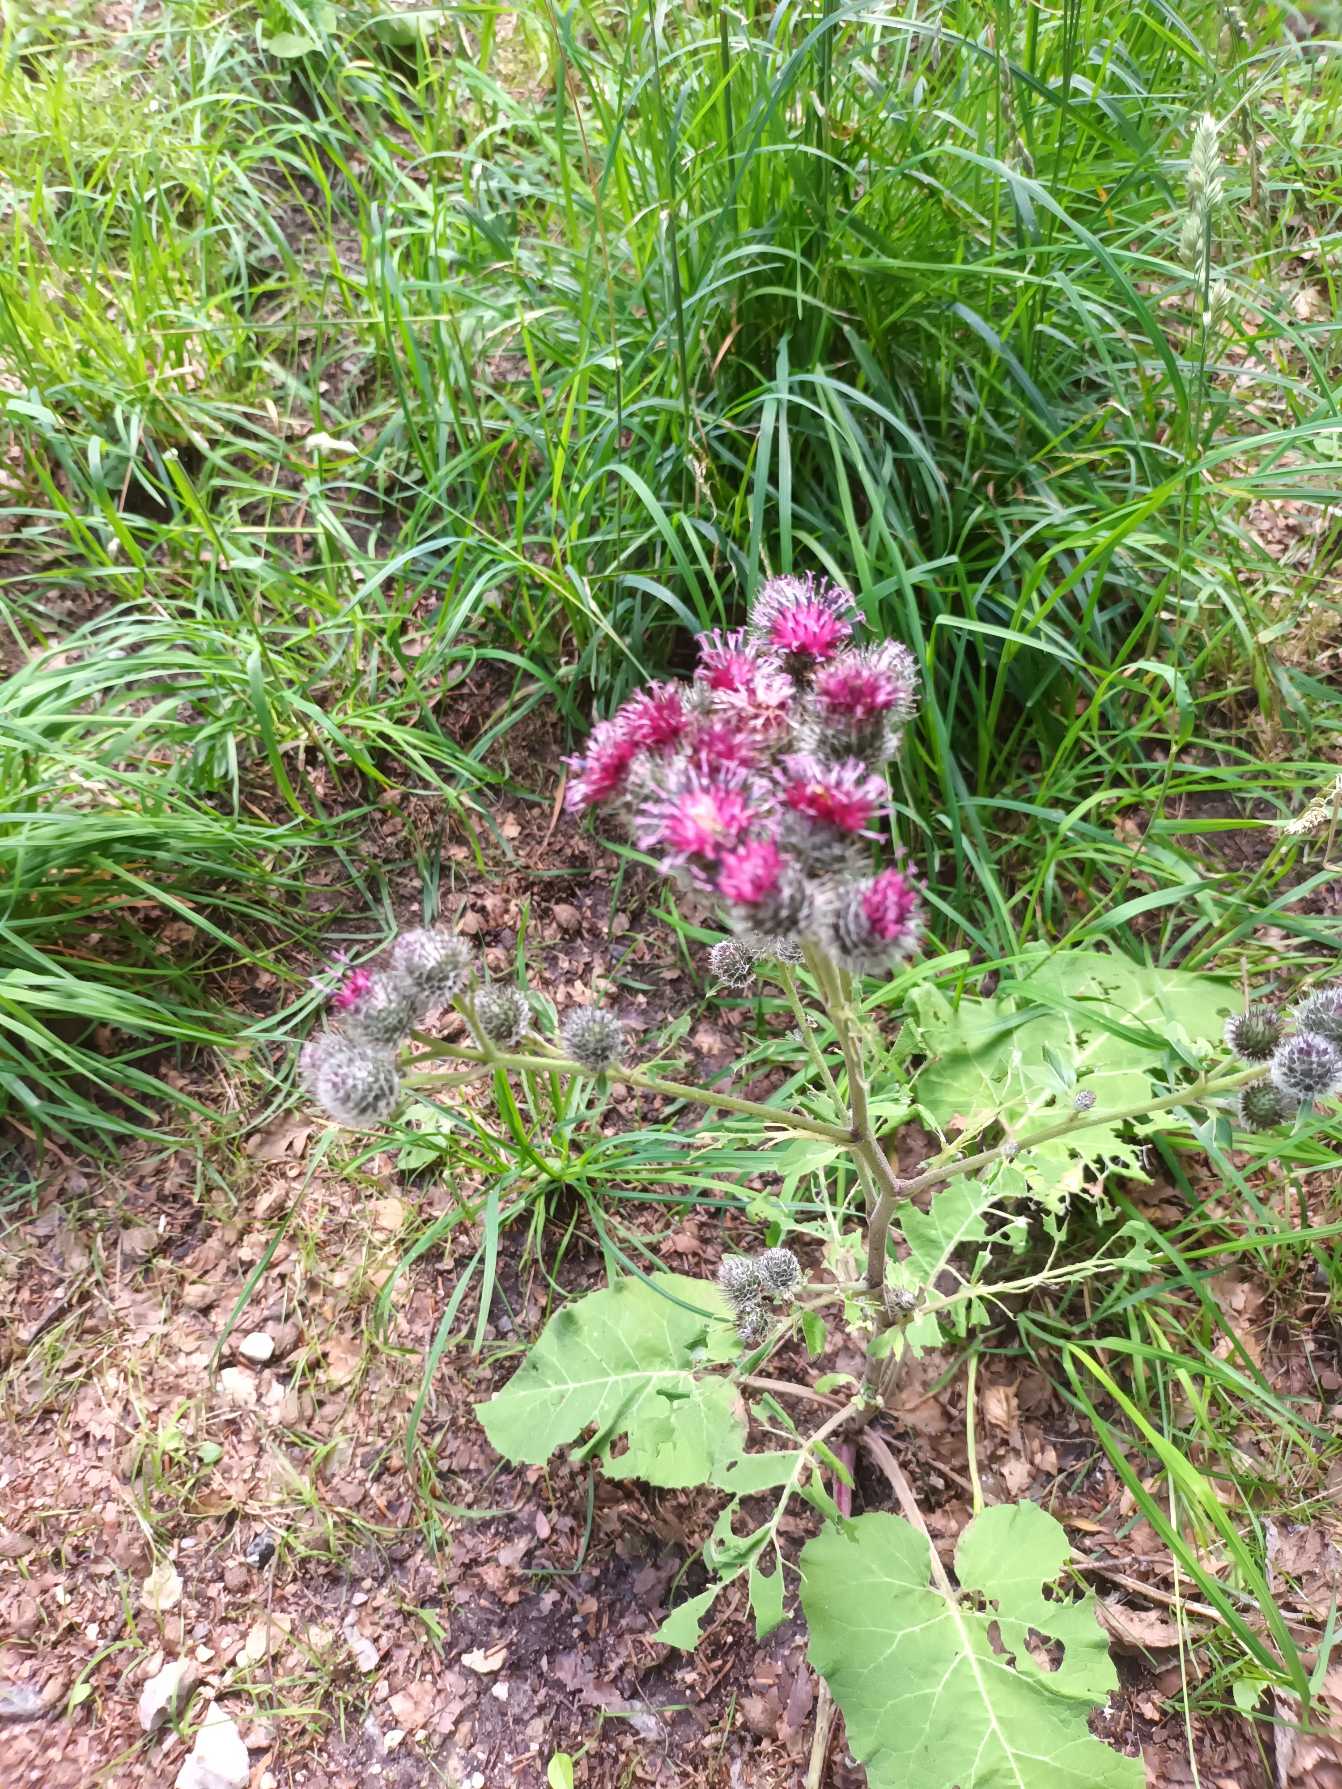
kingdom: Plantae
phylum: Tracheophyta
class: Magnoliopsida
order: Asterales
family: Asteraceae
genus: Arctium
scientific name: Arctium tomentosum
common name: Filtet burre
